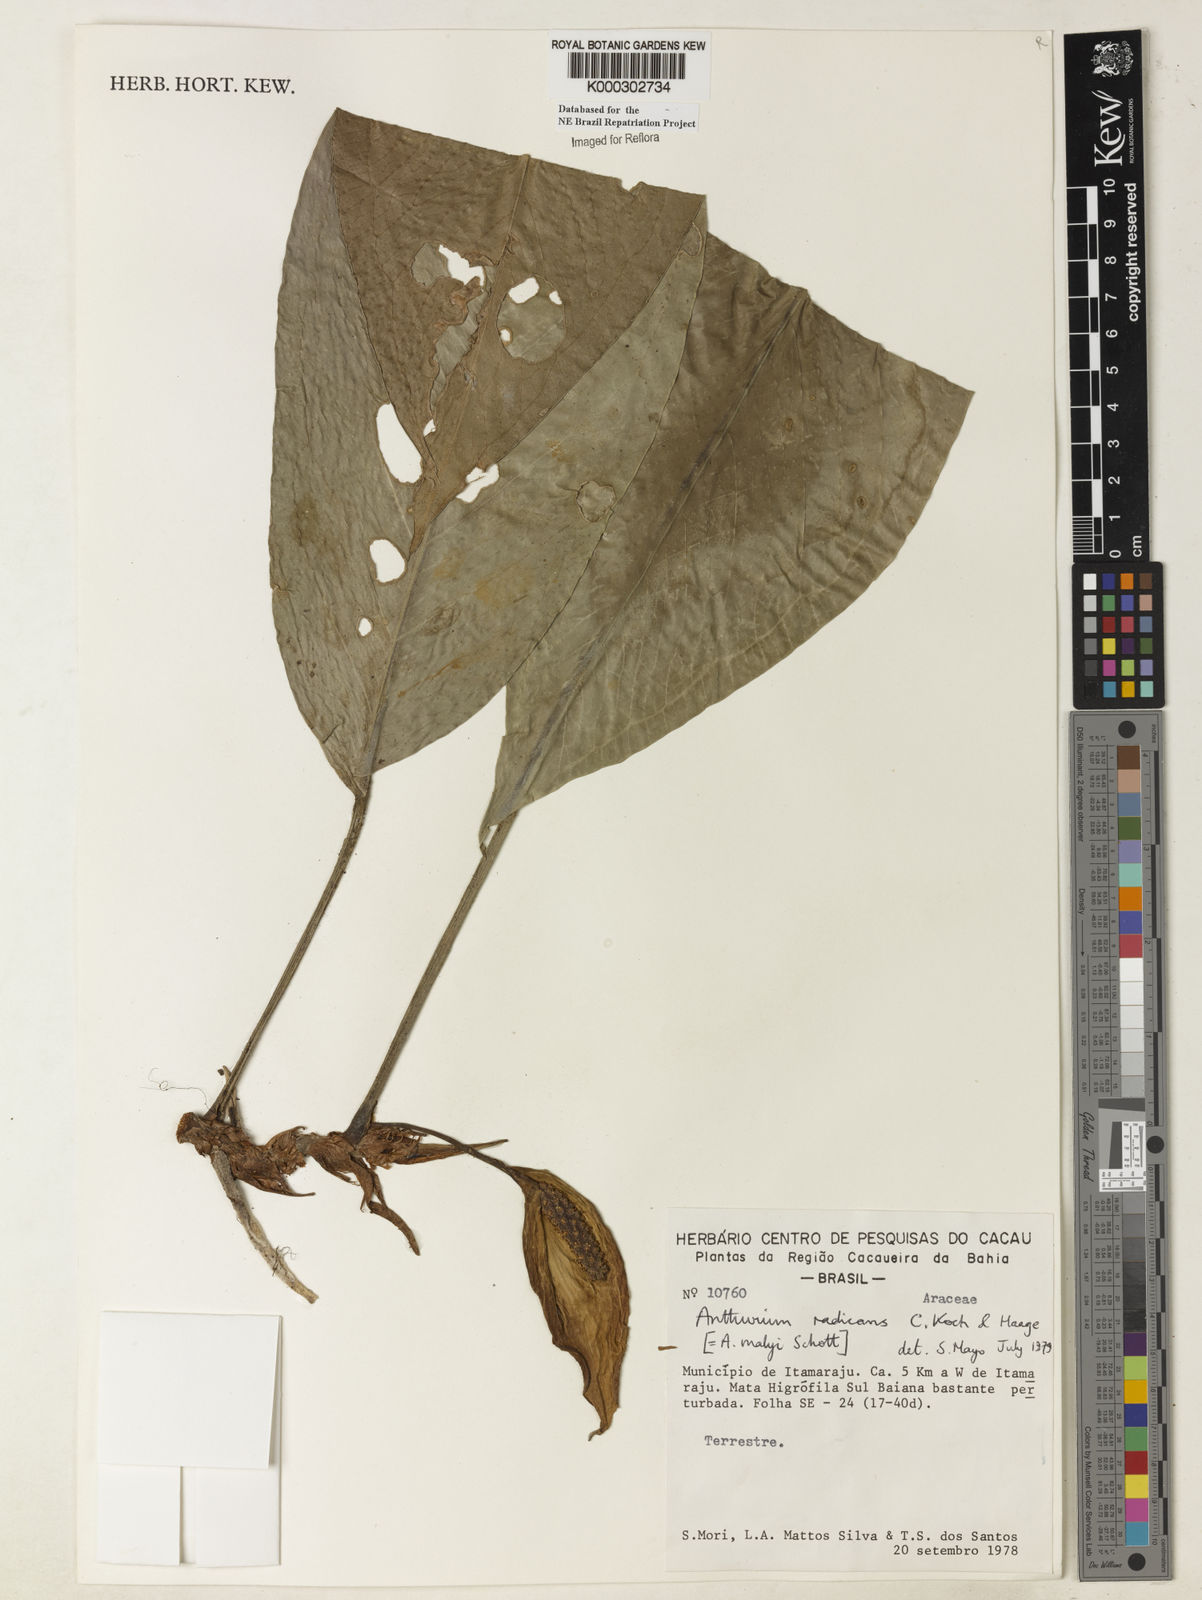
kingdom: Plantae
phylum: Tracheophyta
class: Liliopsida
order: Alismatales
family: Araceae
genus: Anthurium
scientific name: Anthurium radicans
